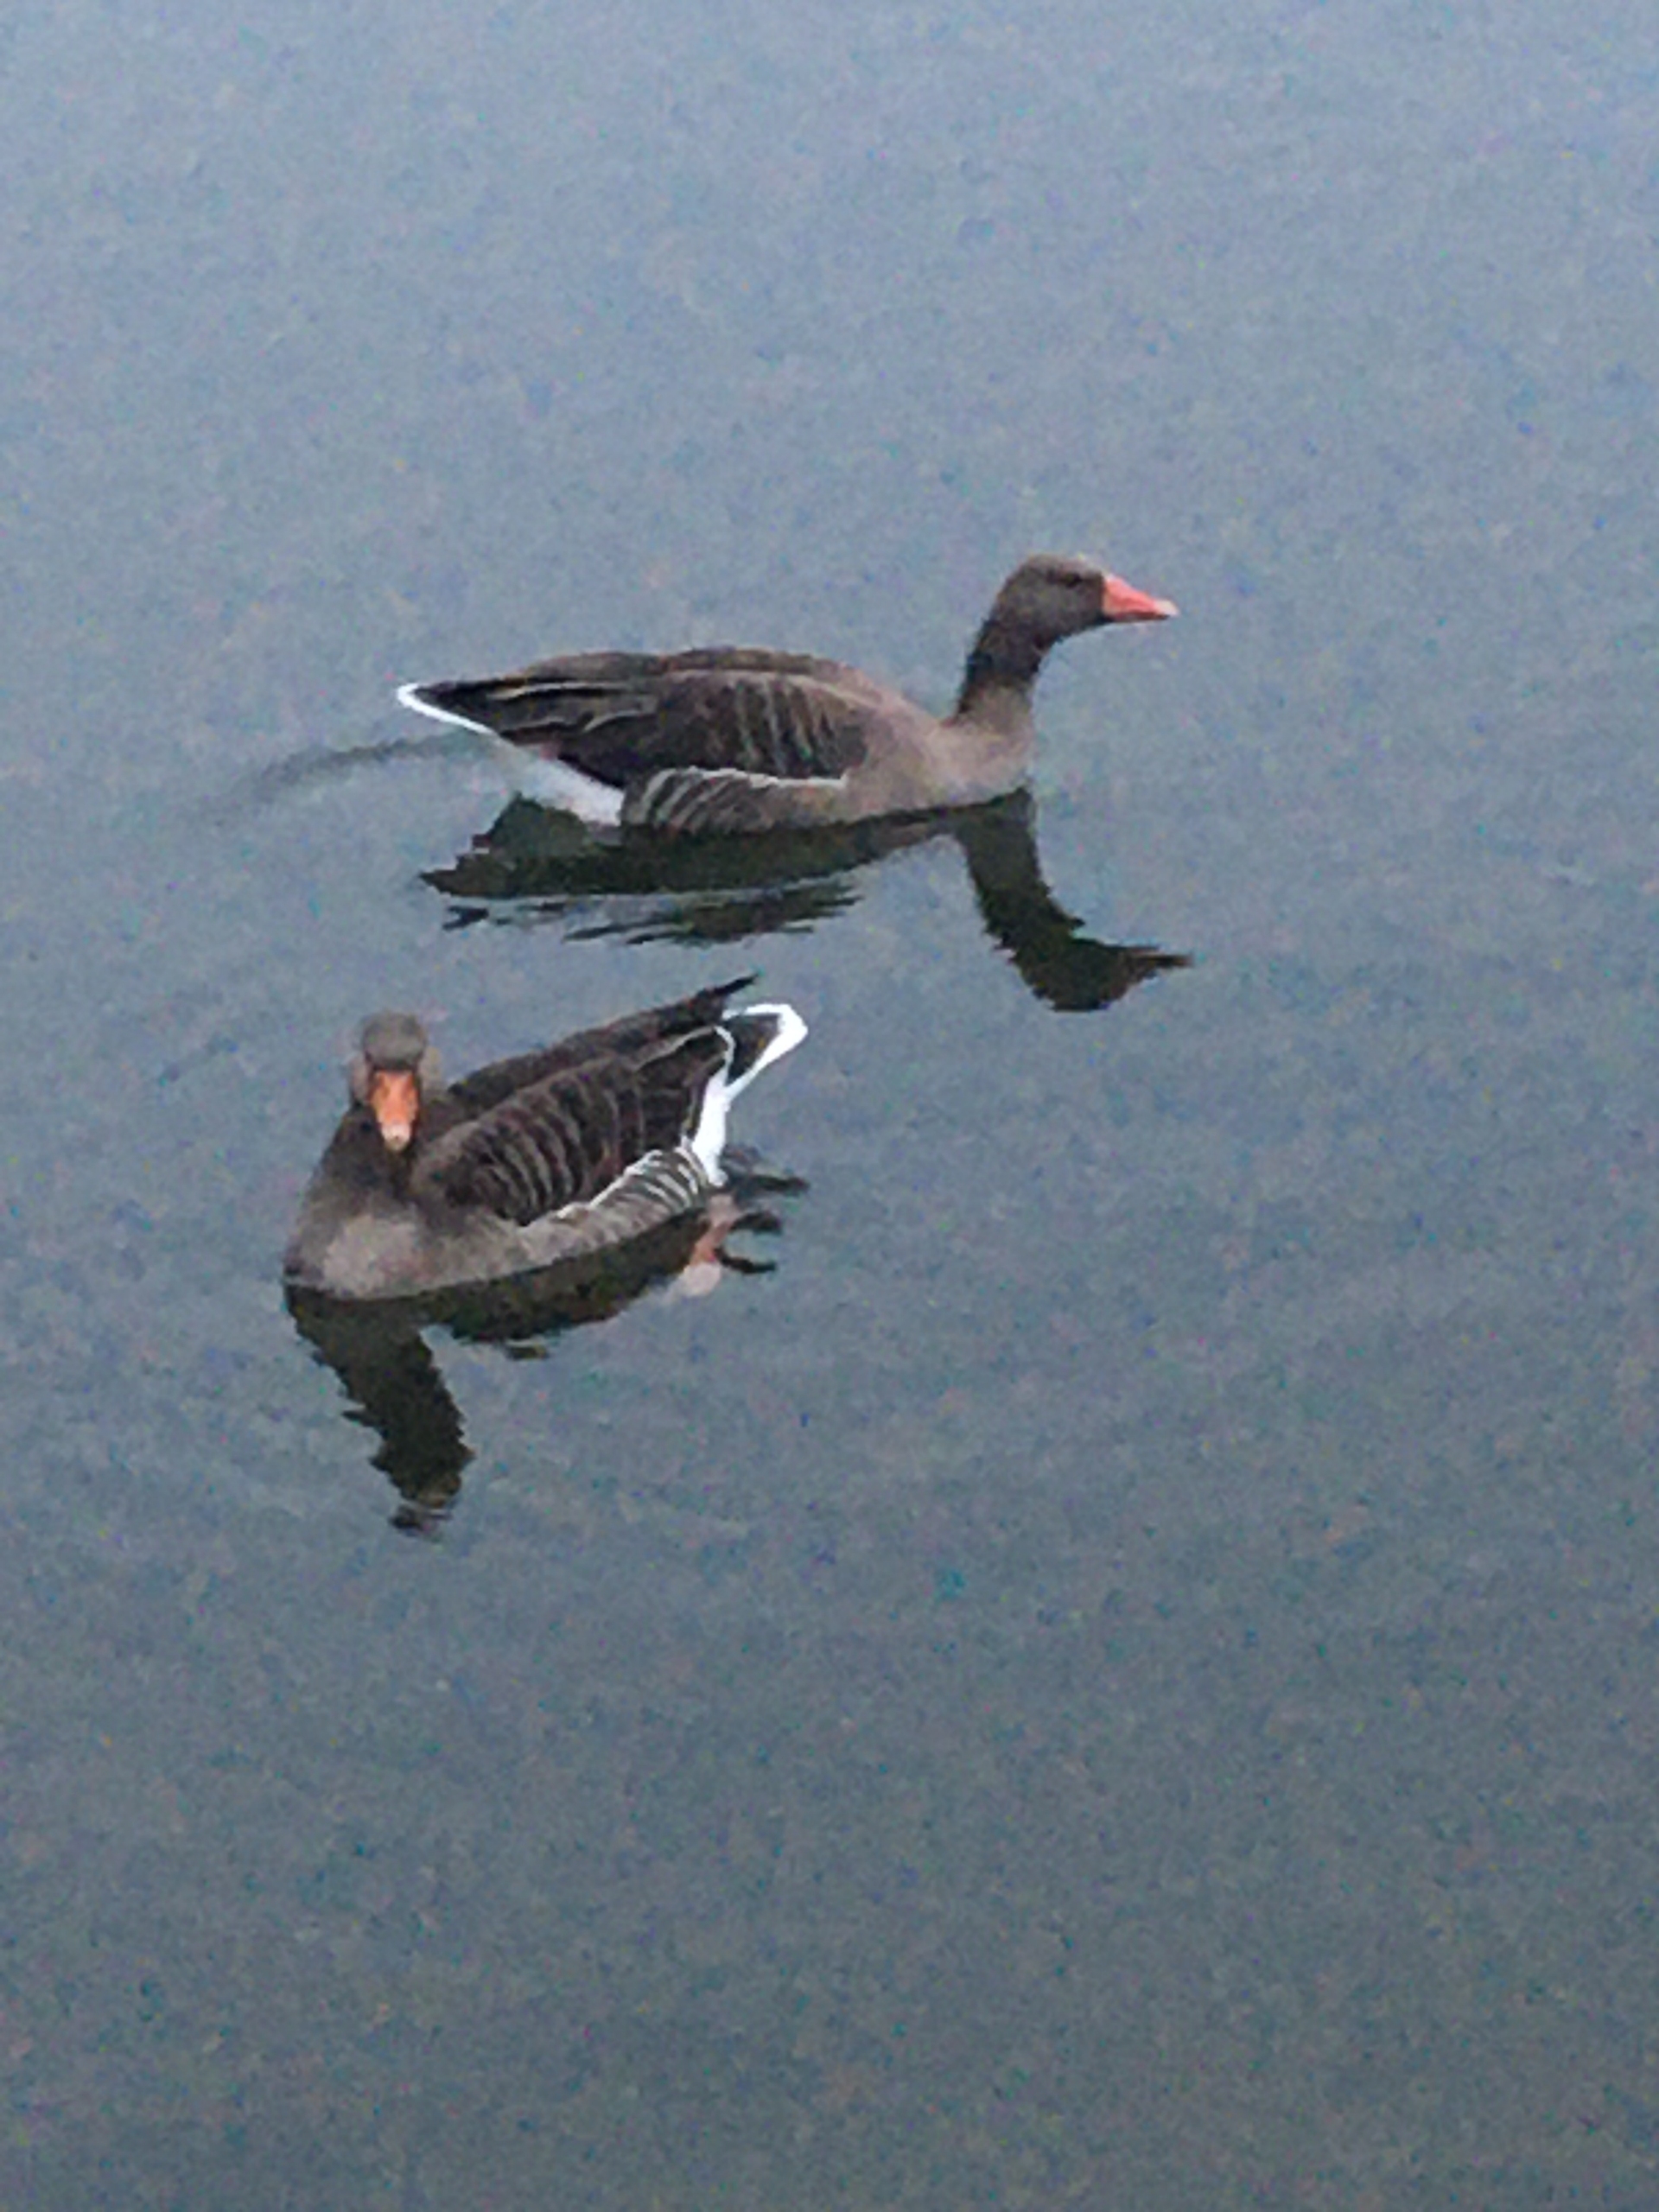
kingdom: Animalia
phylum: Chordata
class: Aves
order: Anseriformes
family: Anatidae
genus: Anser
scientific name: Anser anser
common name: Grågås
